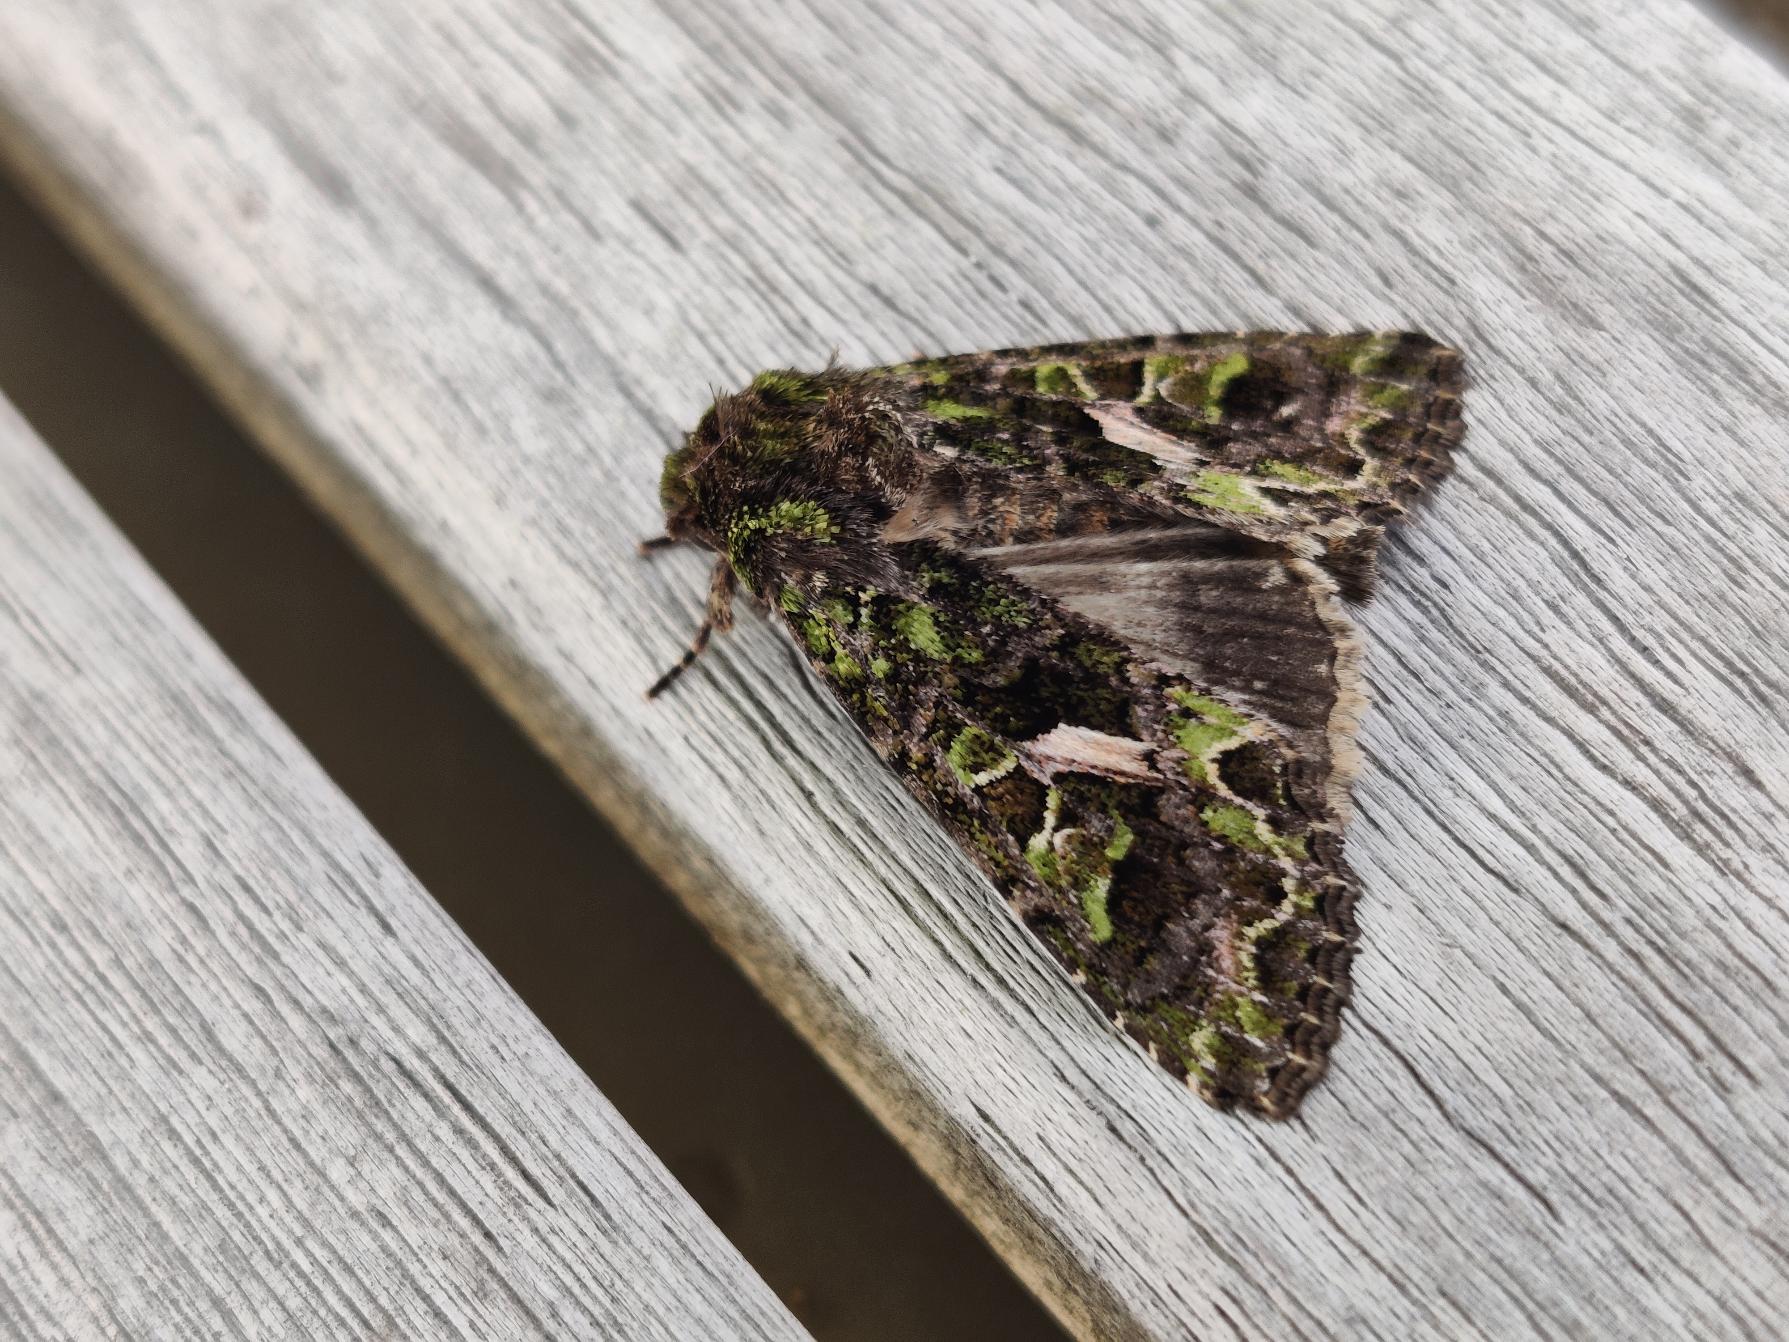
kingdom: Animalia
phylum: Arthropoda
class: Insecta
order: Lepidoptera
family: Noctuidae
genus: Trachea
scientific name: Trachea atriplicis
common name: Mældeugle
